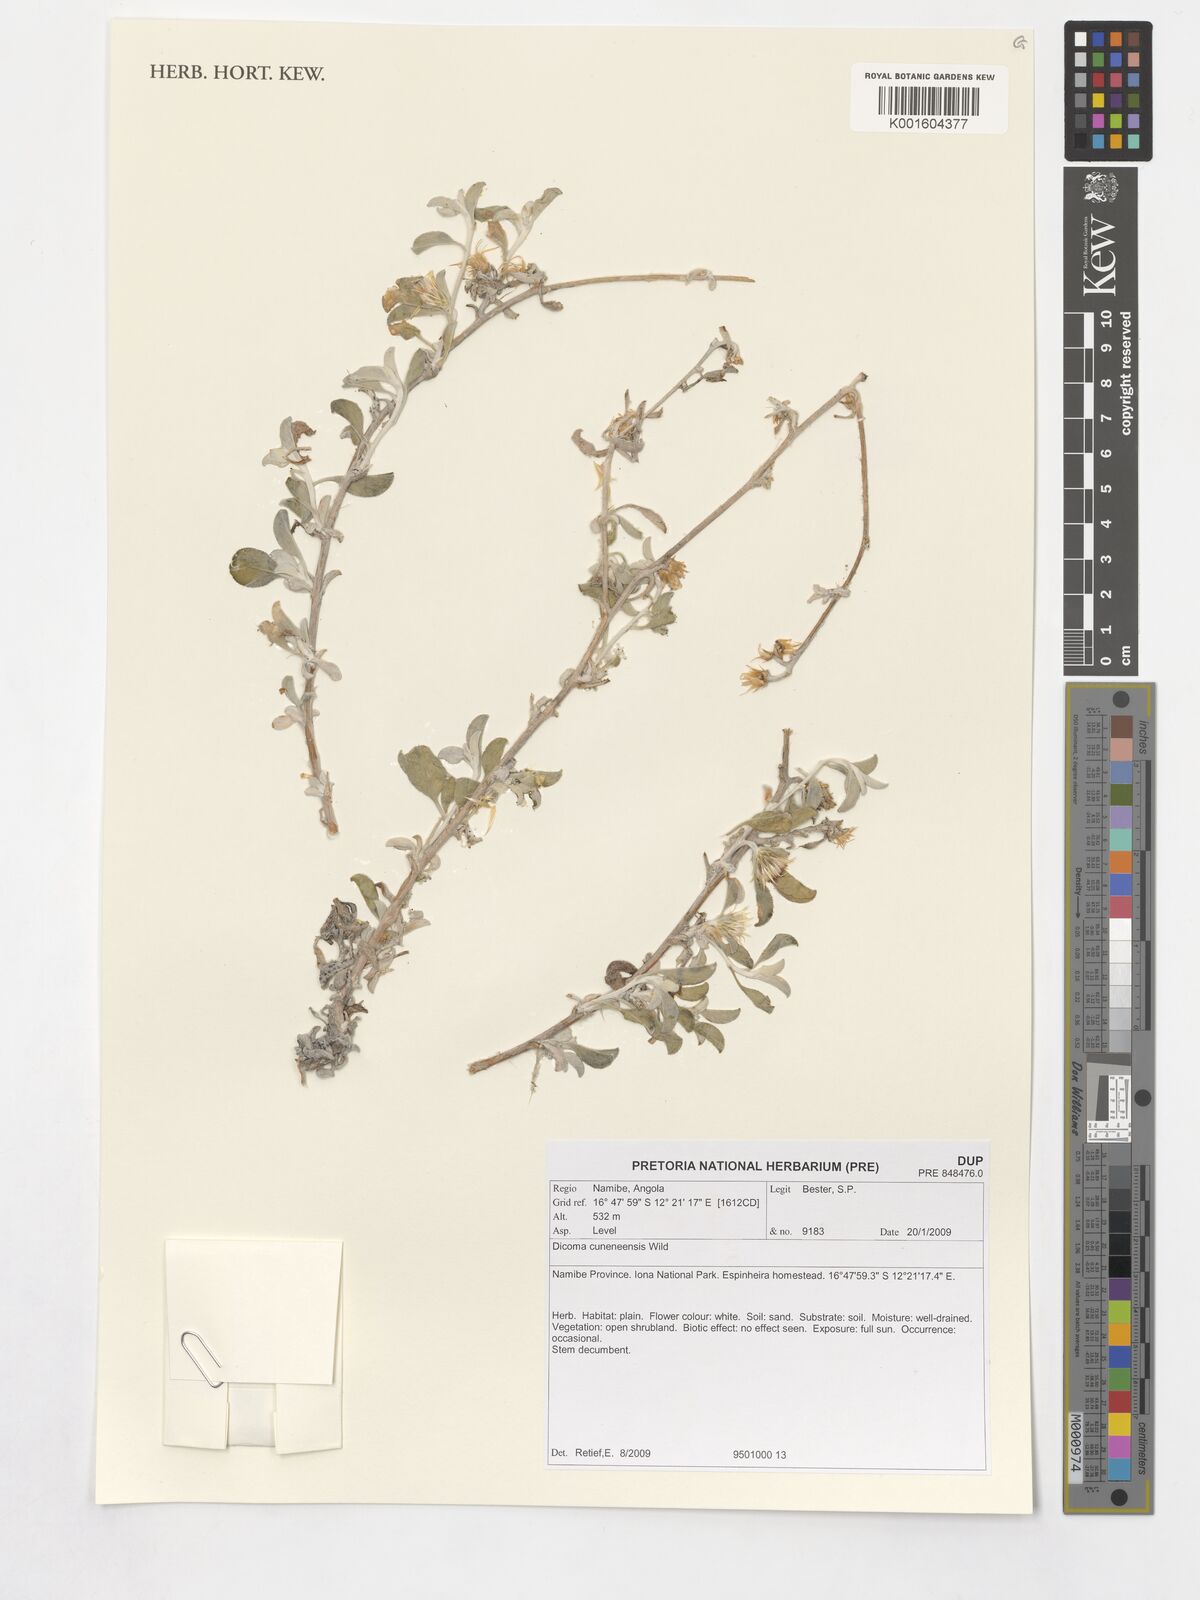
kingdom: Plantae
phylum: Tracheophyta
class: Magnoliopsida
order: Asterales
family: Asteraceae
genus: Dicoma
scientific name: Dicoma cuneneensis
